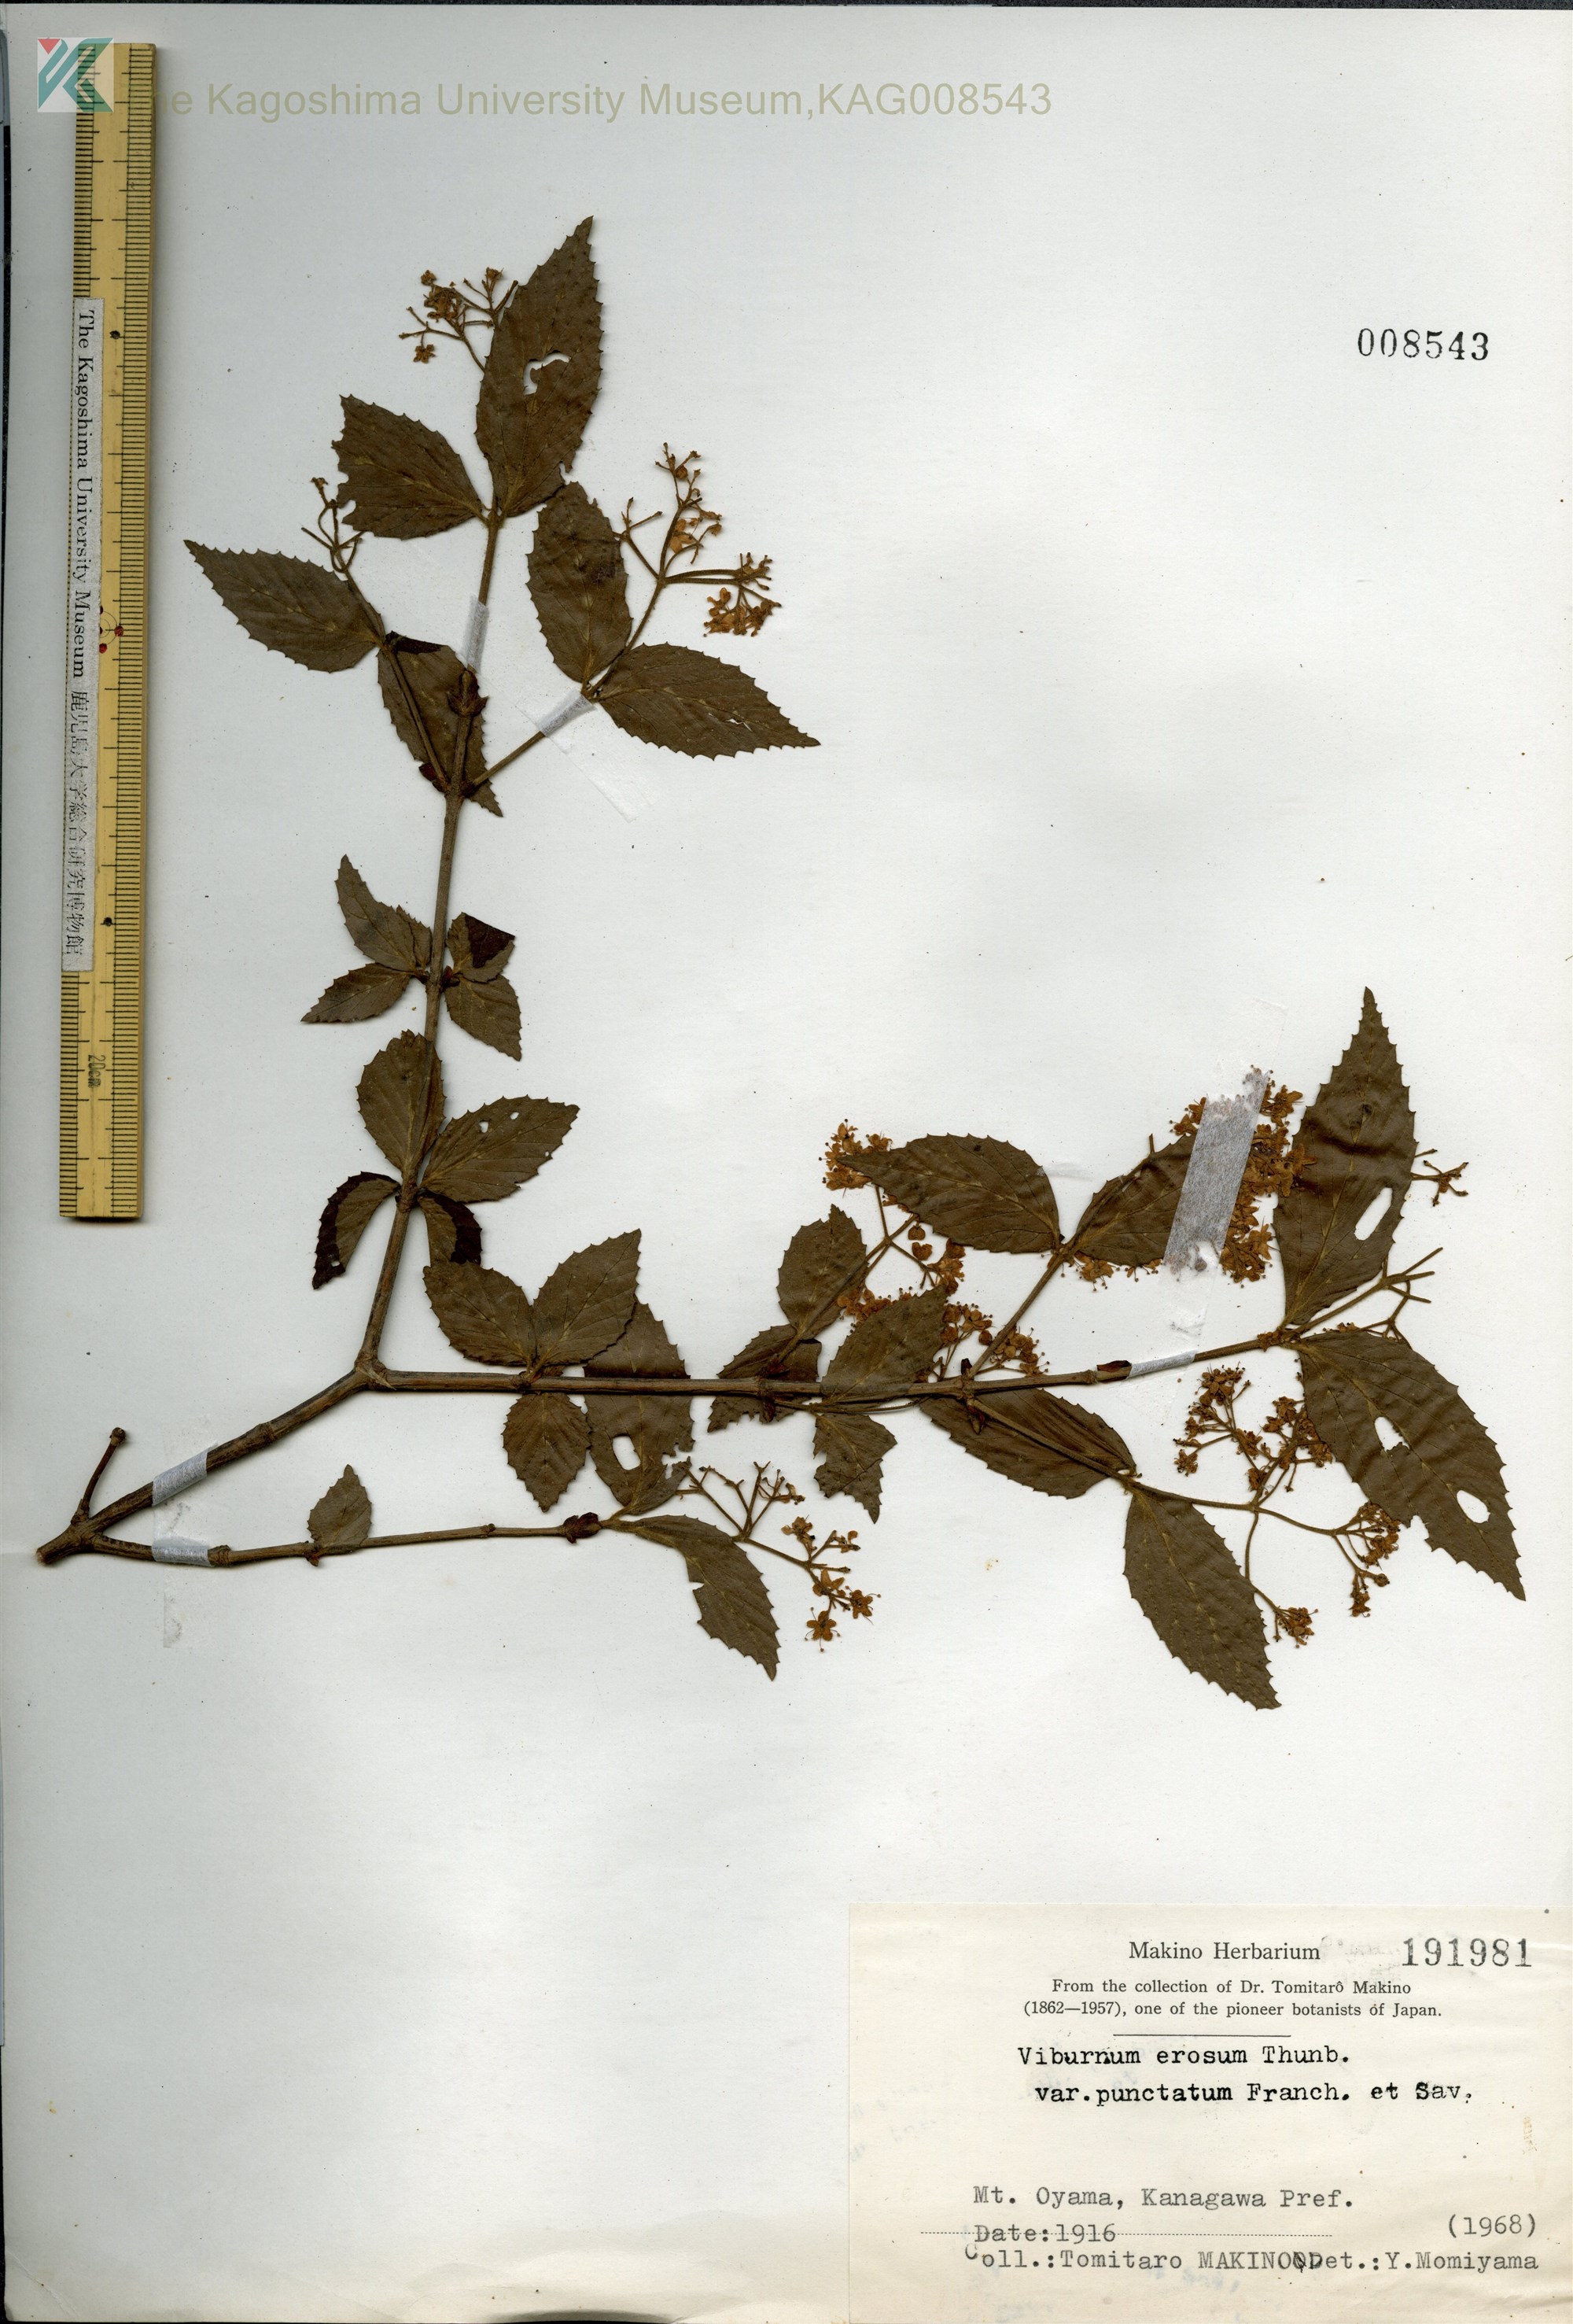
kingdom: Plantae
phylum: Tracheophyta
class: Magnoliopsida
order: Dipsacales
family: Viburnaceae
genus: Viburnum
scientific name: Viburnum erosum
